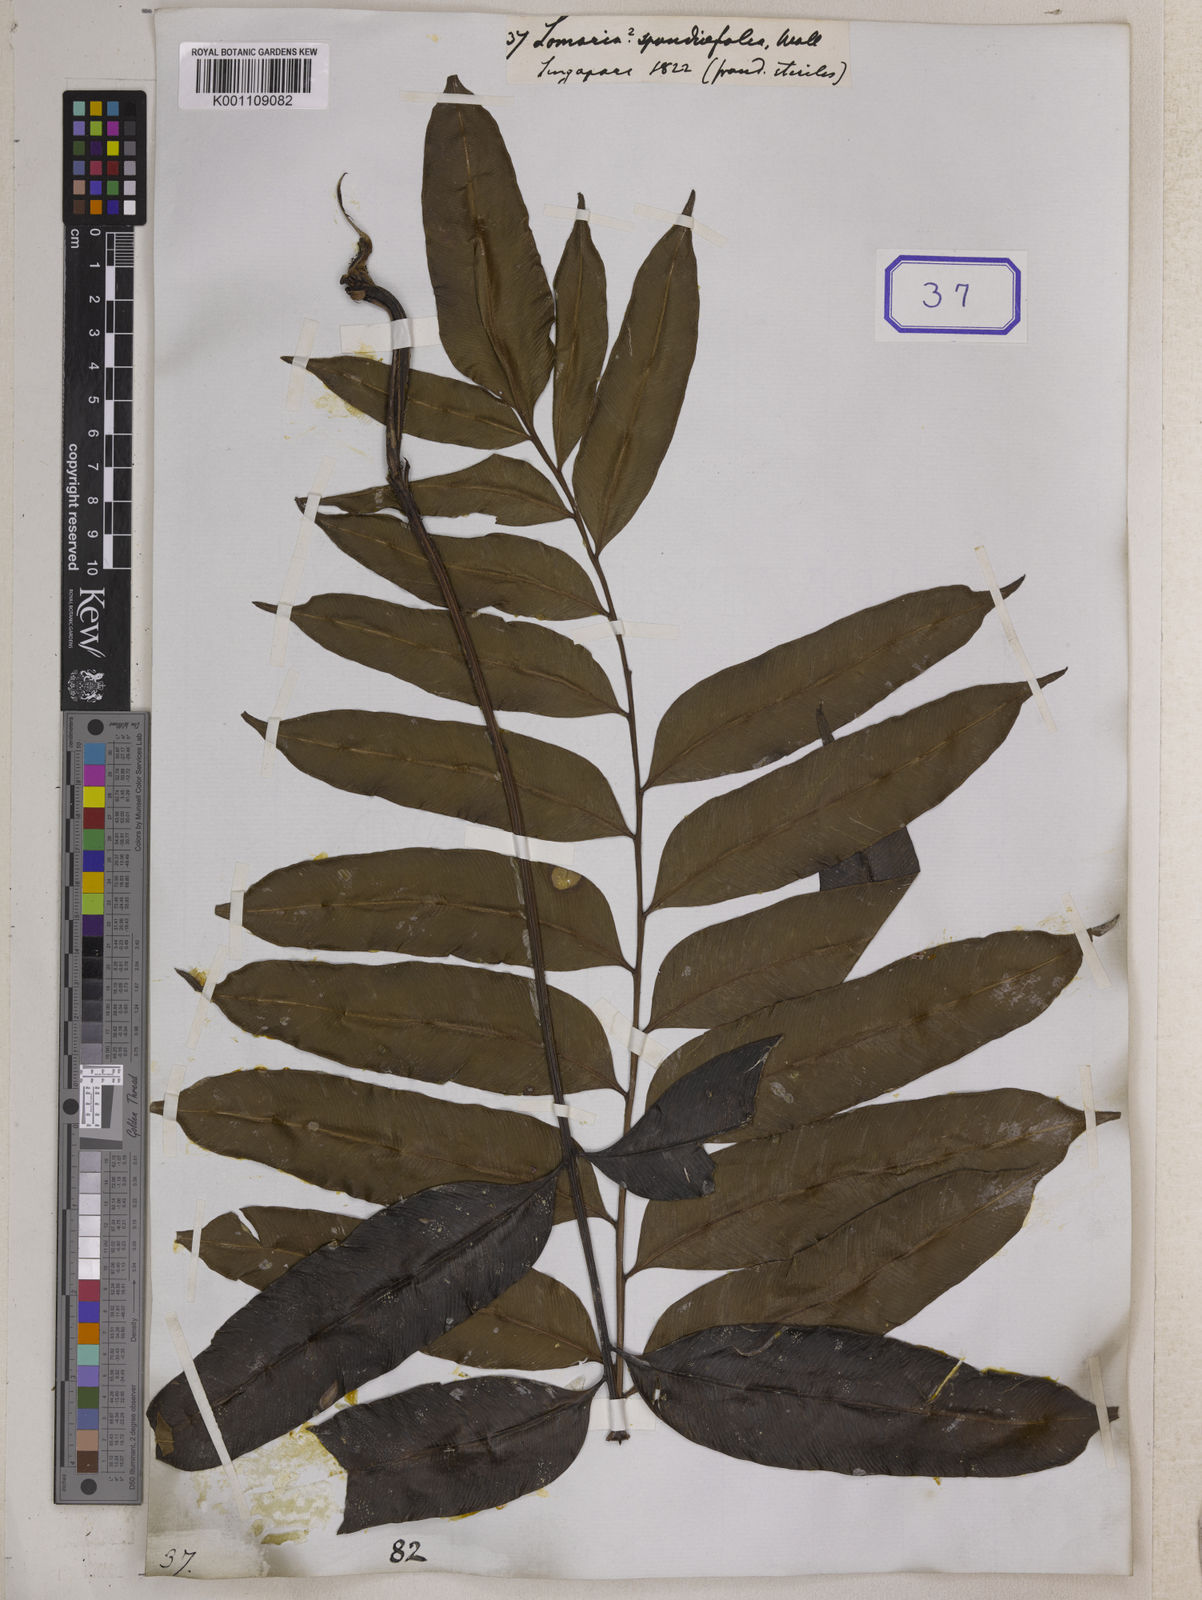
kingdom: Plantae
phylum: Tracheophyta
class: Polypodiopsida
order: Polypodiales
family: Lomariopsidaceae
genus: Lomariopsis
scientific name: Lomariopsis lineata
